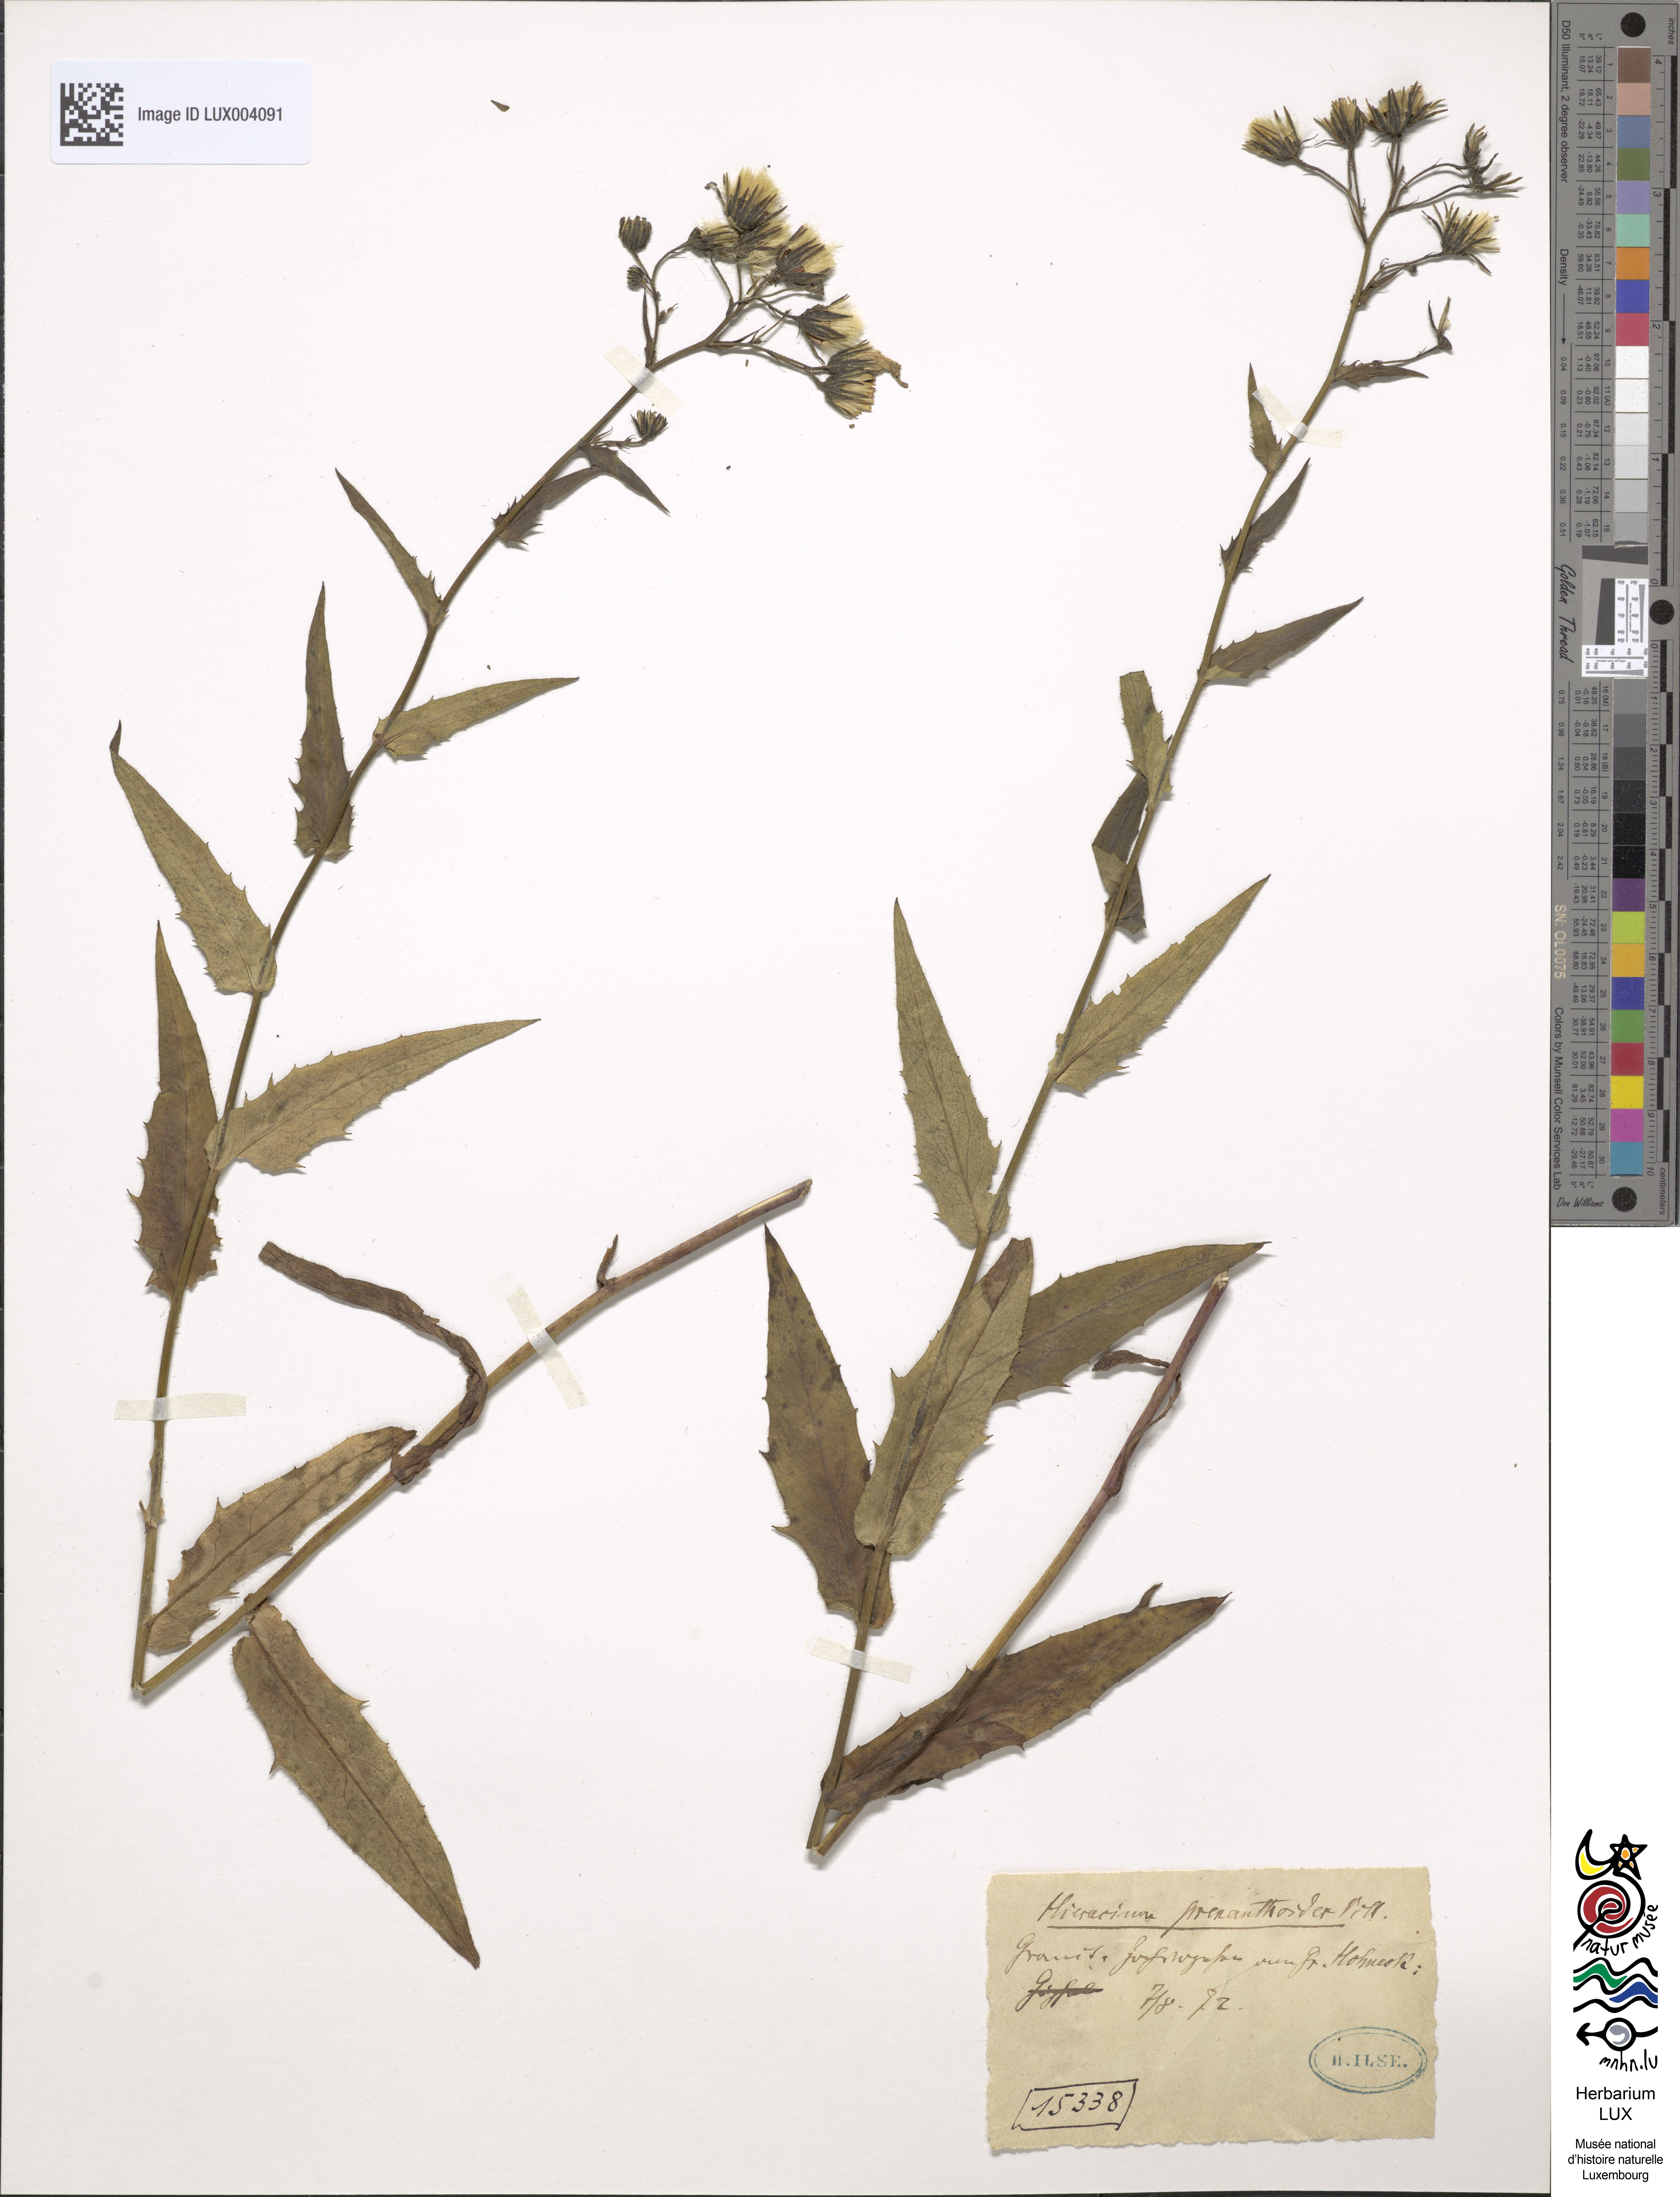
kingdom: Plantae
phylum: Tracheophyta
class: Magnoliopsida
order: Asterales
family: Asteraceae
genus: Hieracium
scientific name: Hieracium prenanthoides
